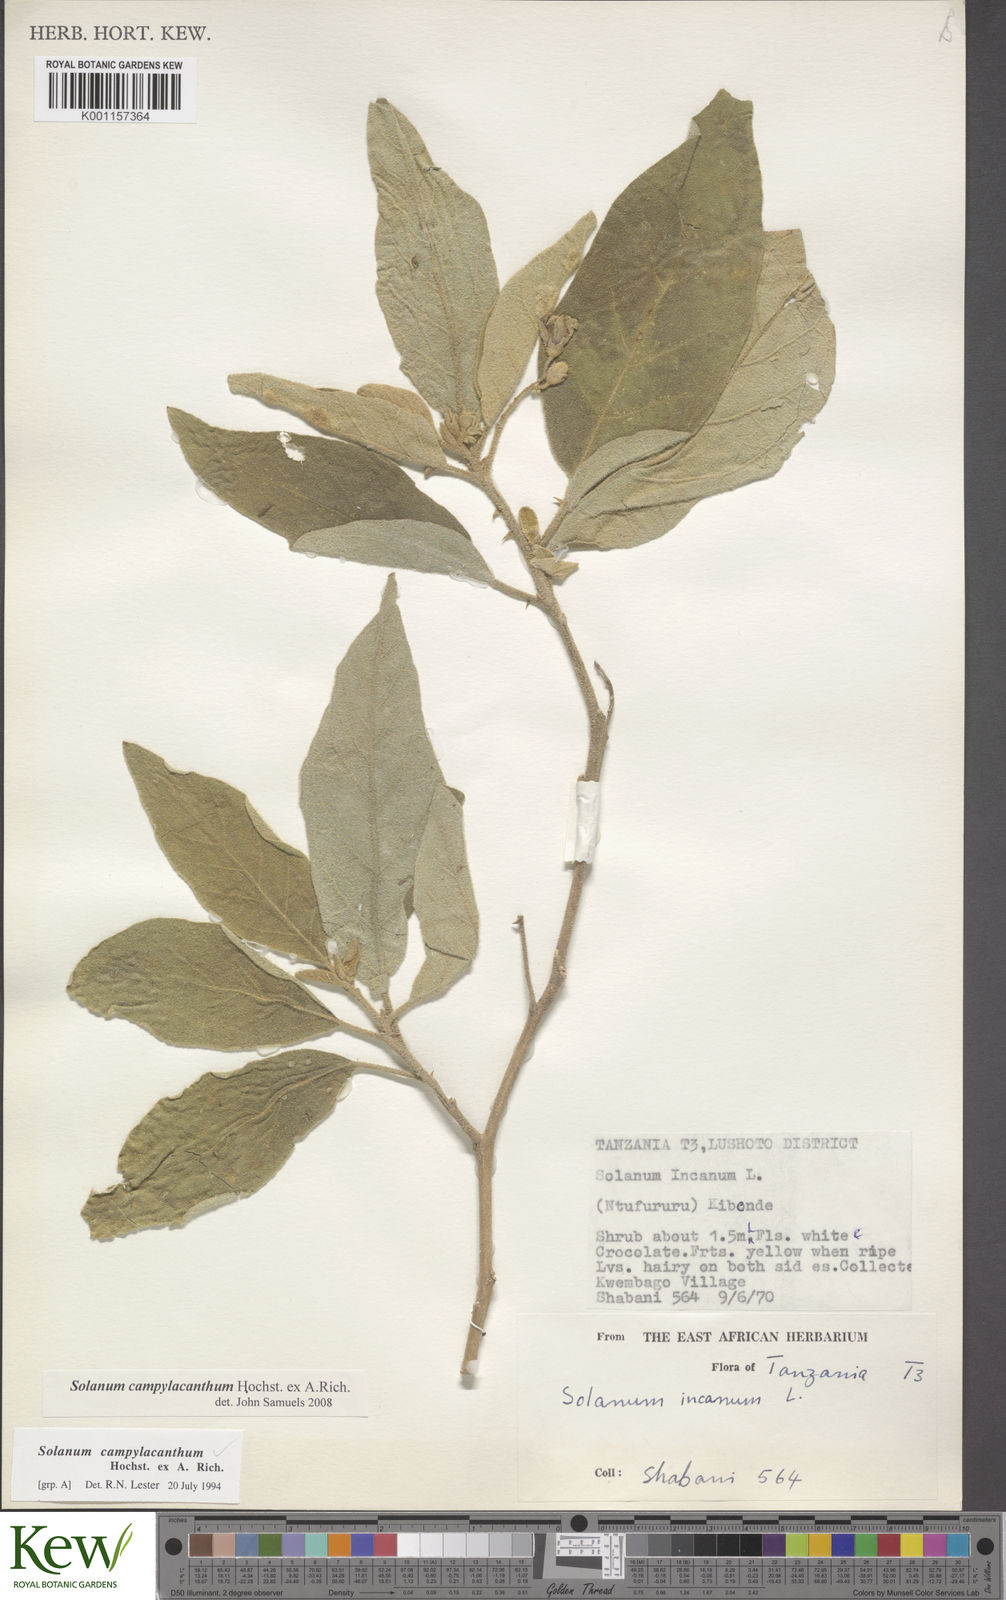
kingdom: Plantae
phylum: Tracheophyta
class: Magnoliopsida
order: Solanales
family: Solanaceae
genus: Solanum
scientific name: Solanum campylacanthum
